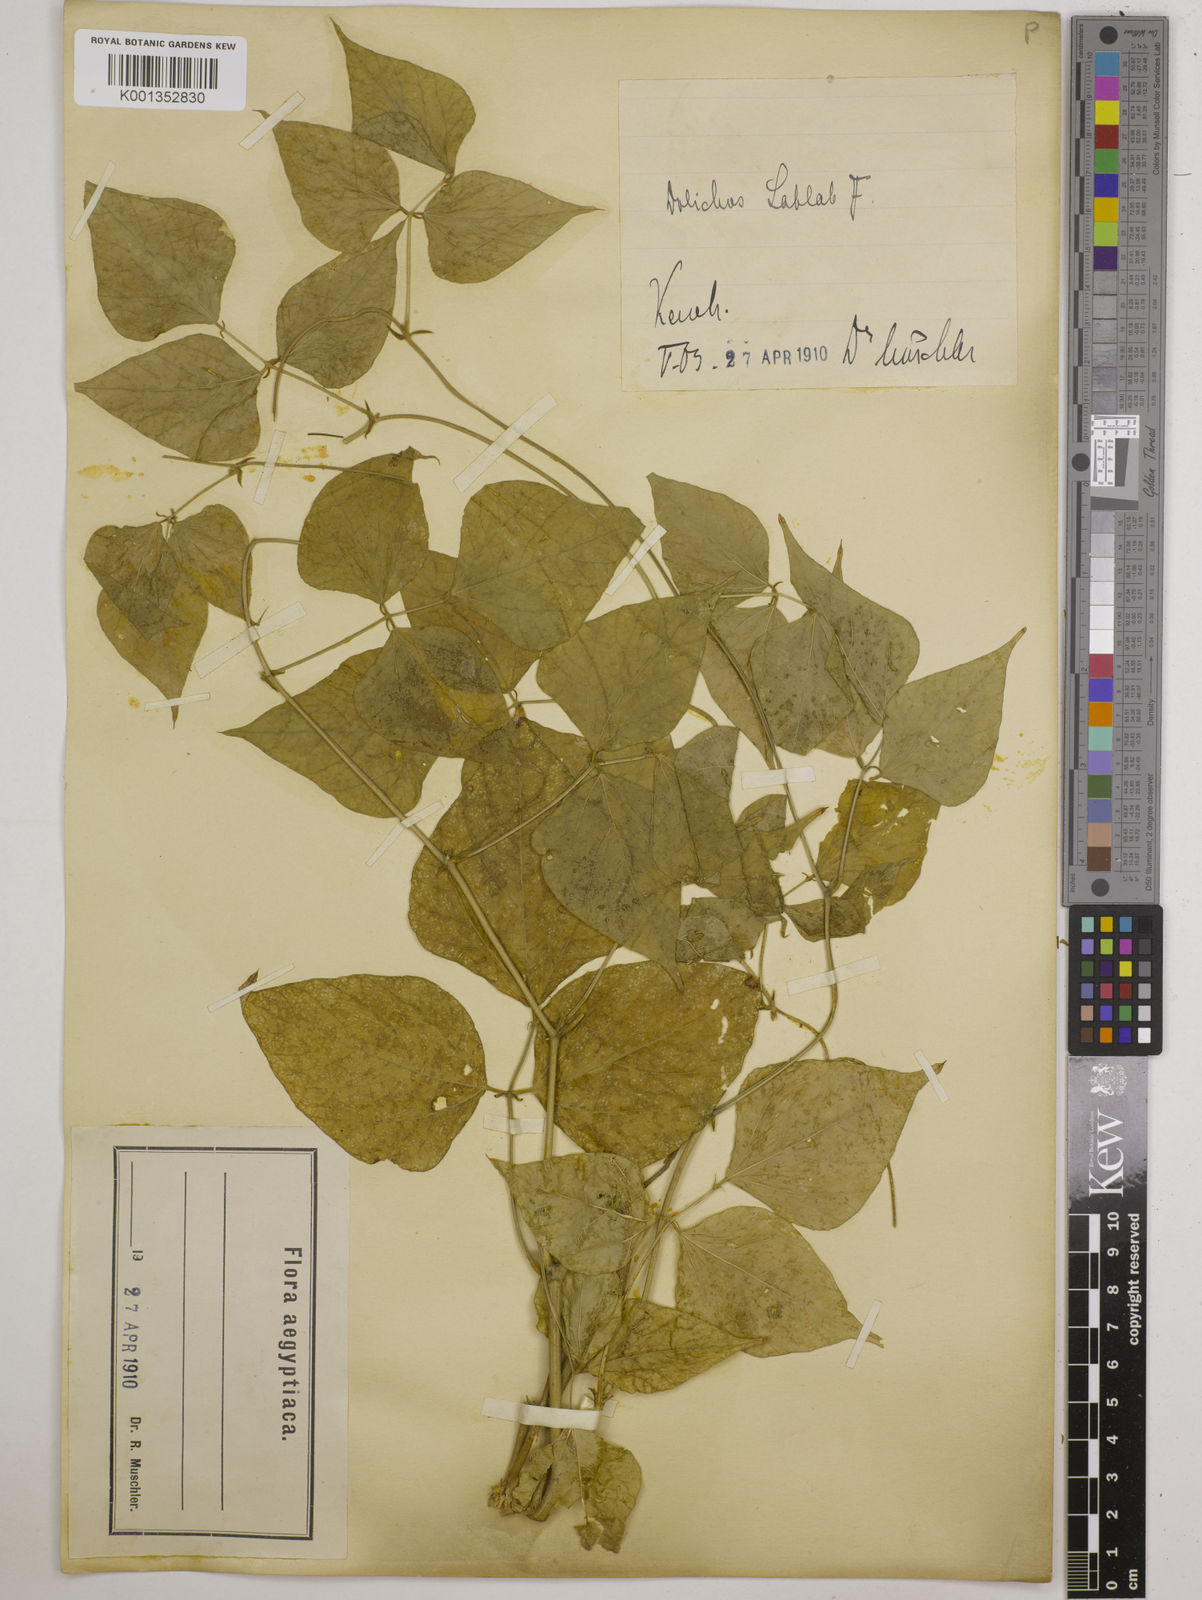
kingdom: Plantae
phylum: Tracheophyta
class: Magnoliopsida
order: Fabales
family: Fabaceae
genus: Lablab
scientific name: Lablab purpureus
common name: Lablab-bean
